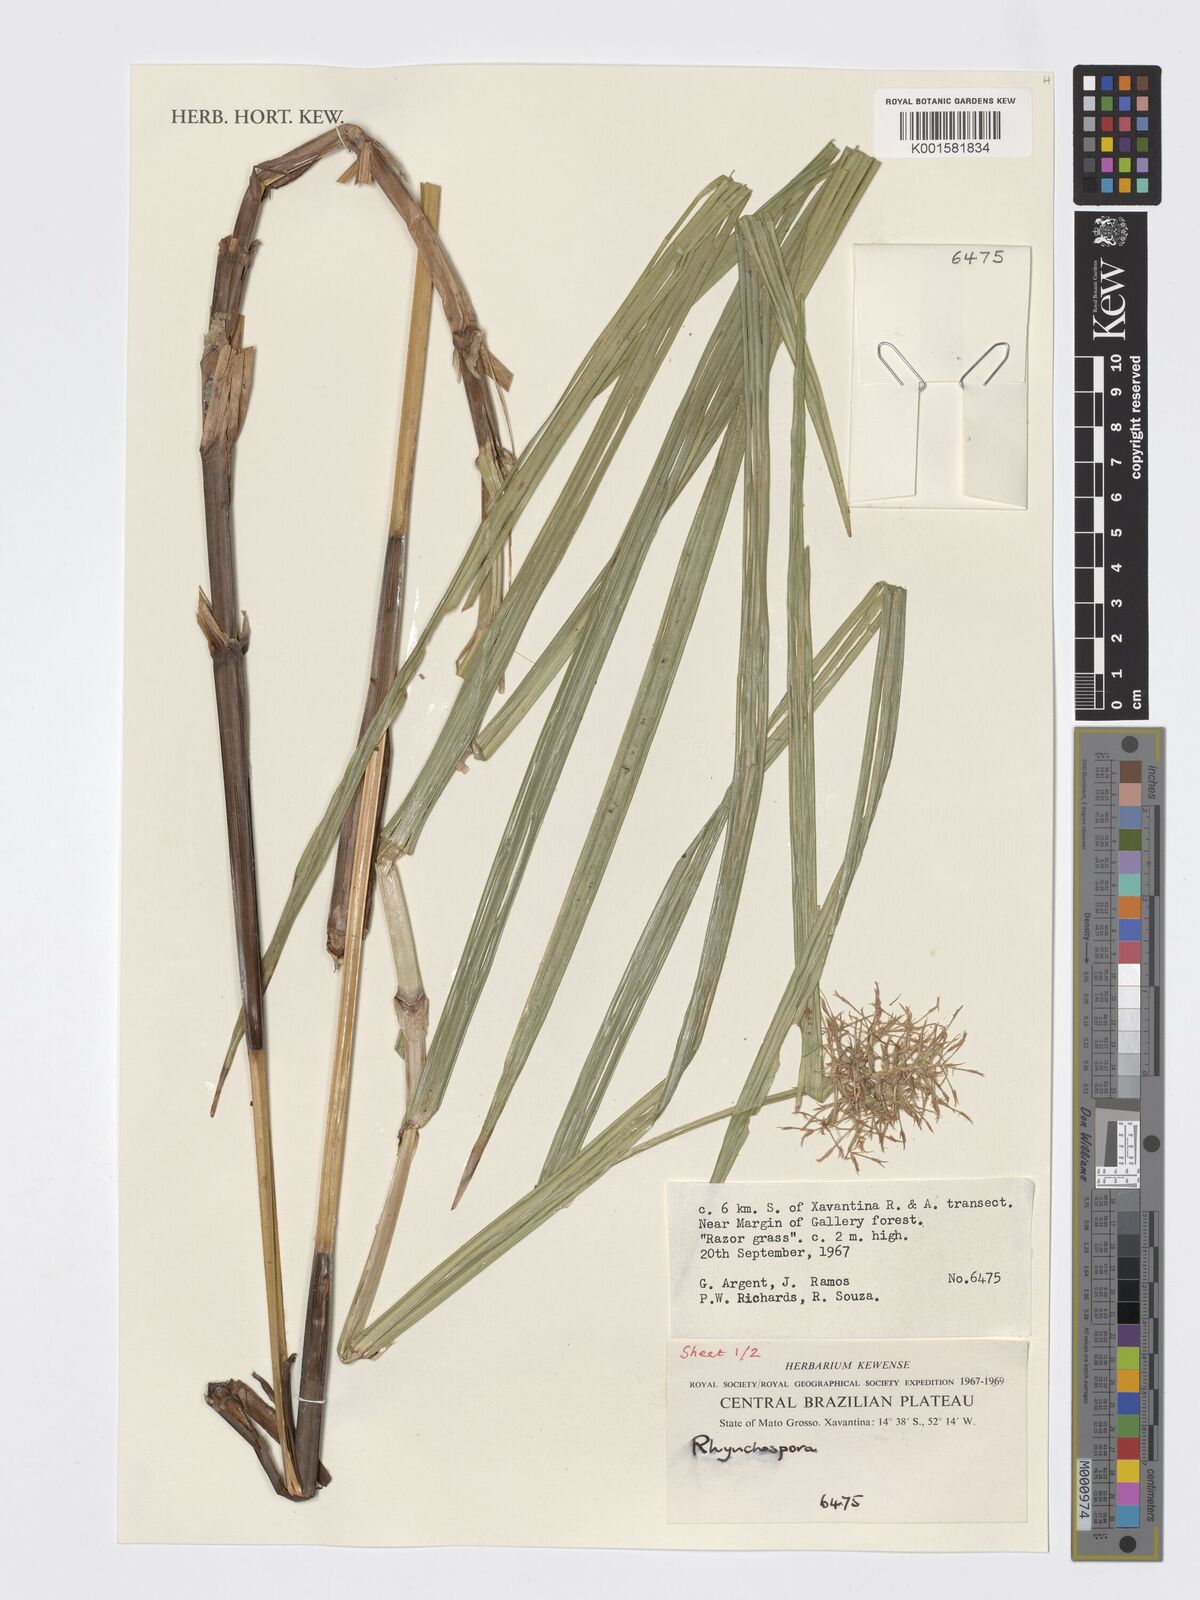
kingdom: Plantae
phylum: Tracheophyta
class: Liliopsida
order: Poales
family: Cyperaceae
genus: Rhynchospora
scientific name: Rhynchospora
